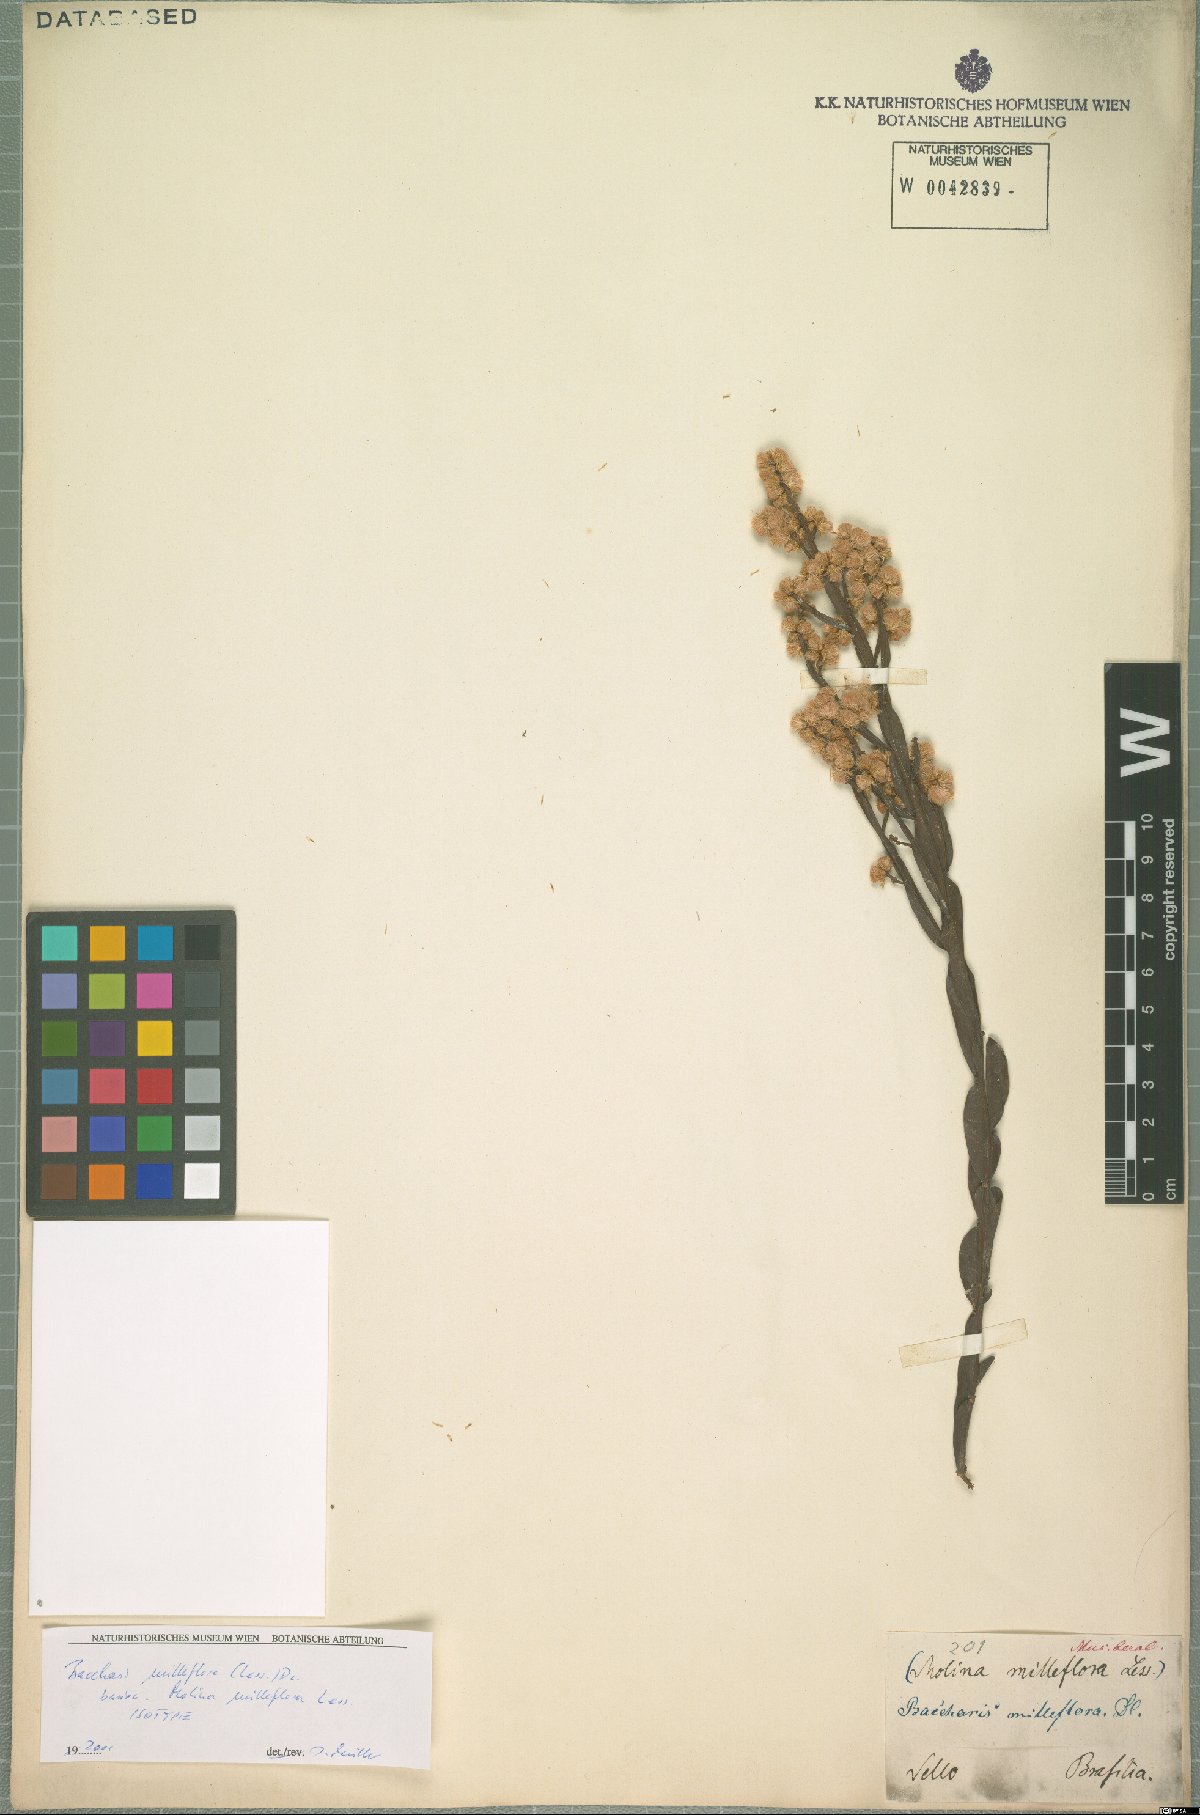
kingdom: Plantae
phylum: Tracheophyta
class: Magnoliopsida
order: Asterales
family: Asteraceae
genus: Baccharis
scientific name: Baccharis milleflora
